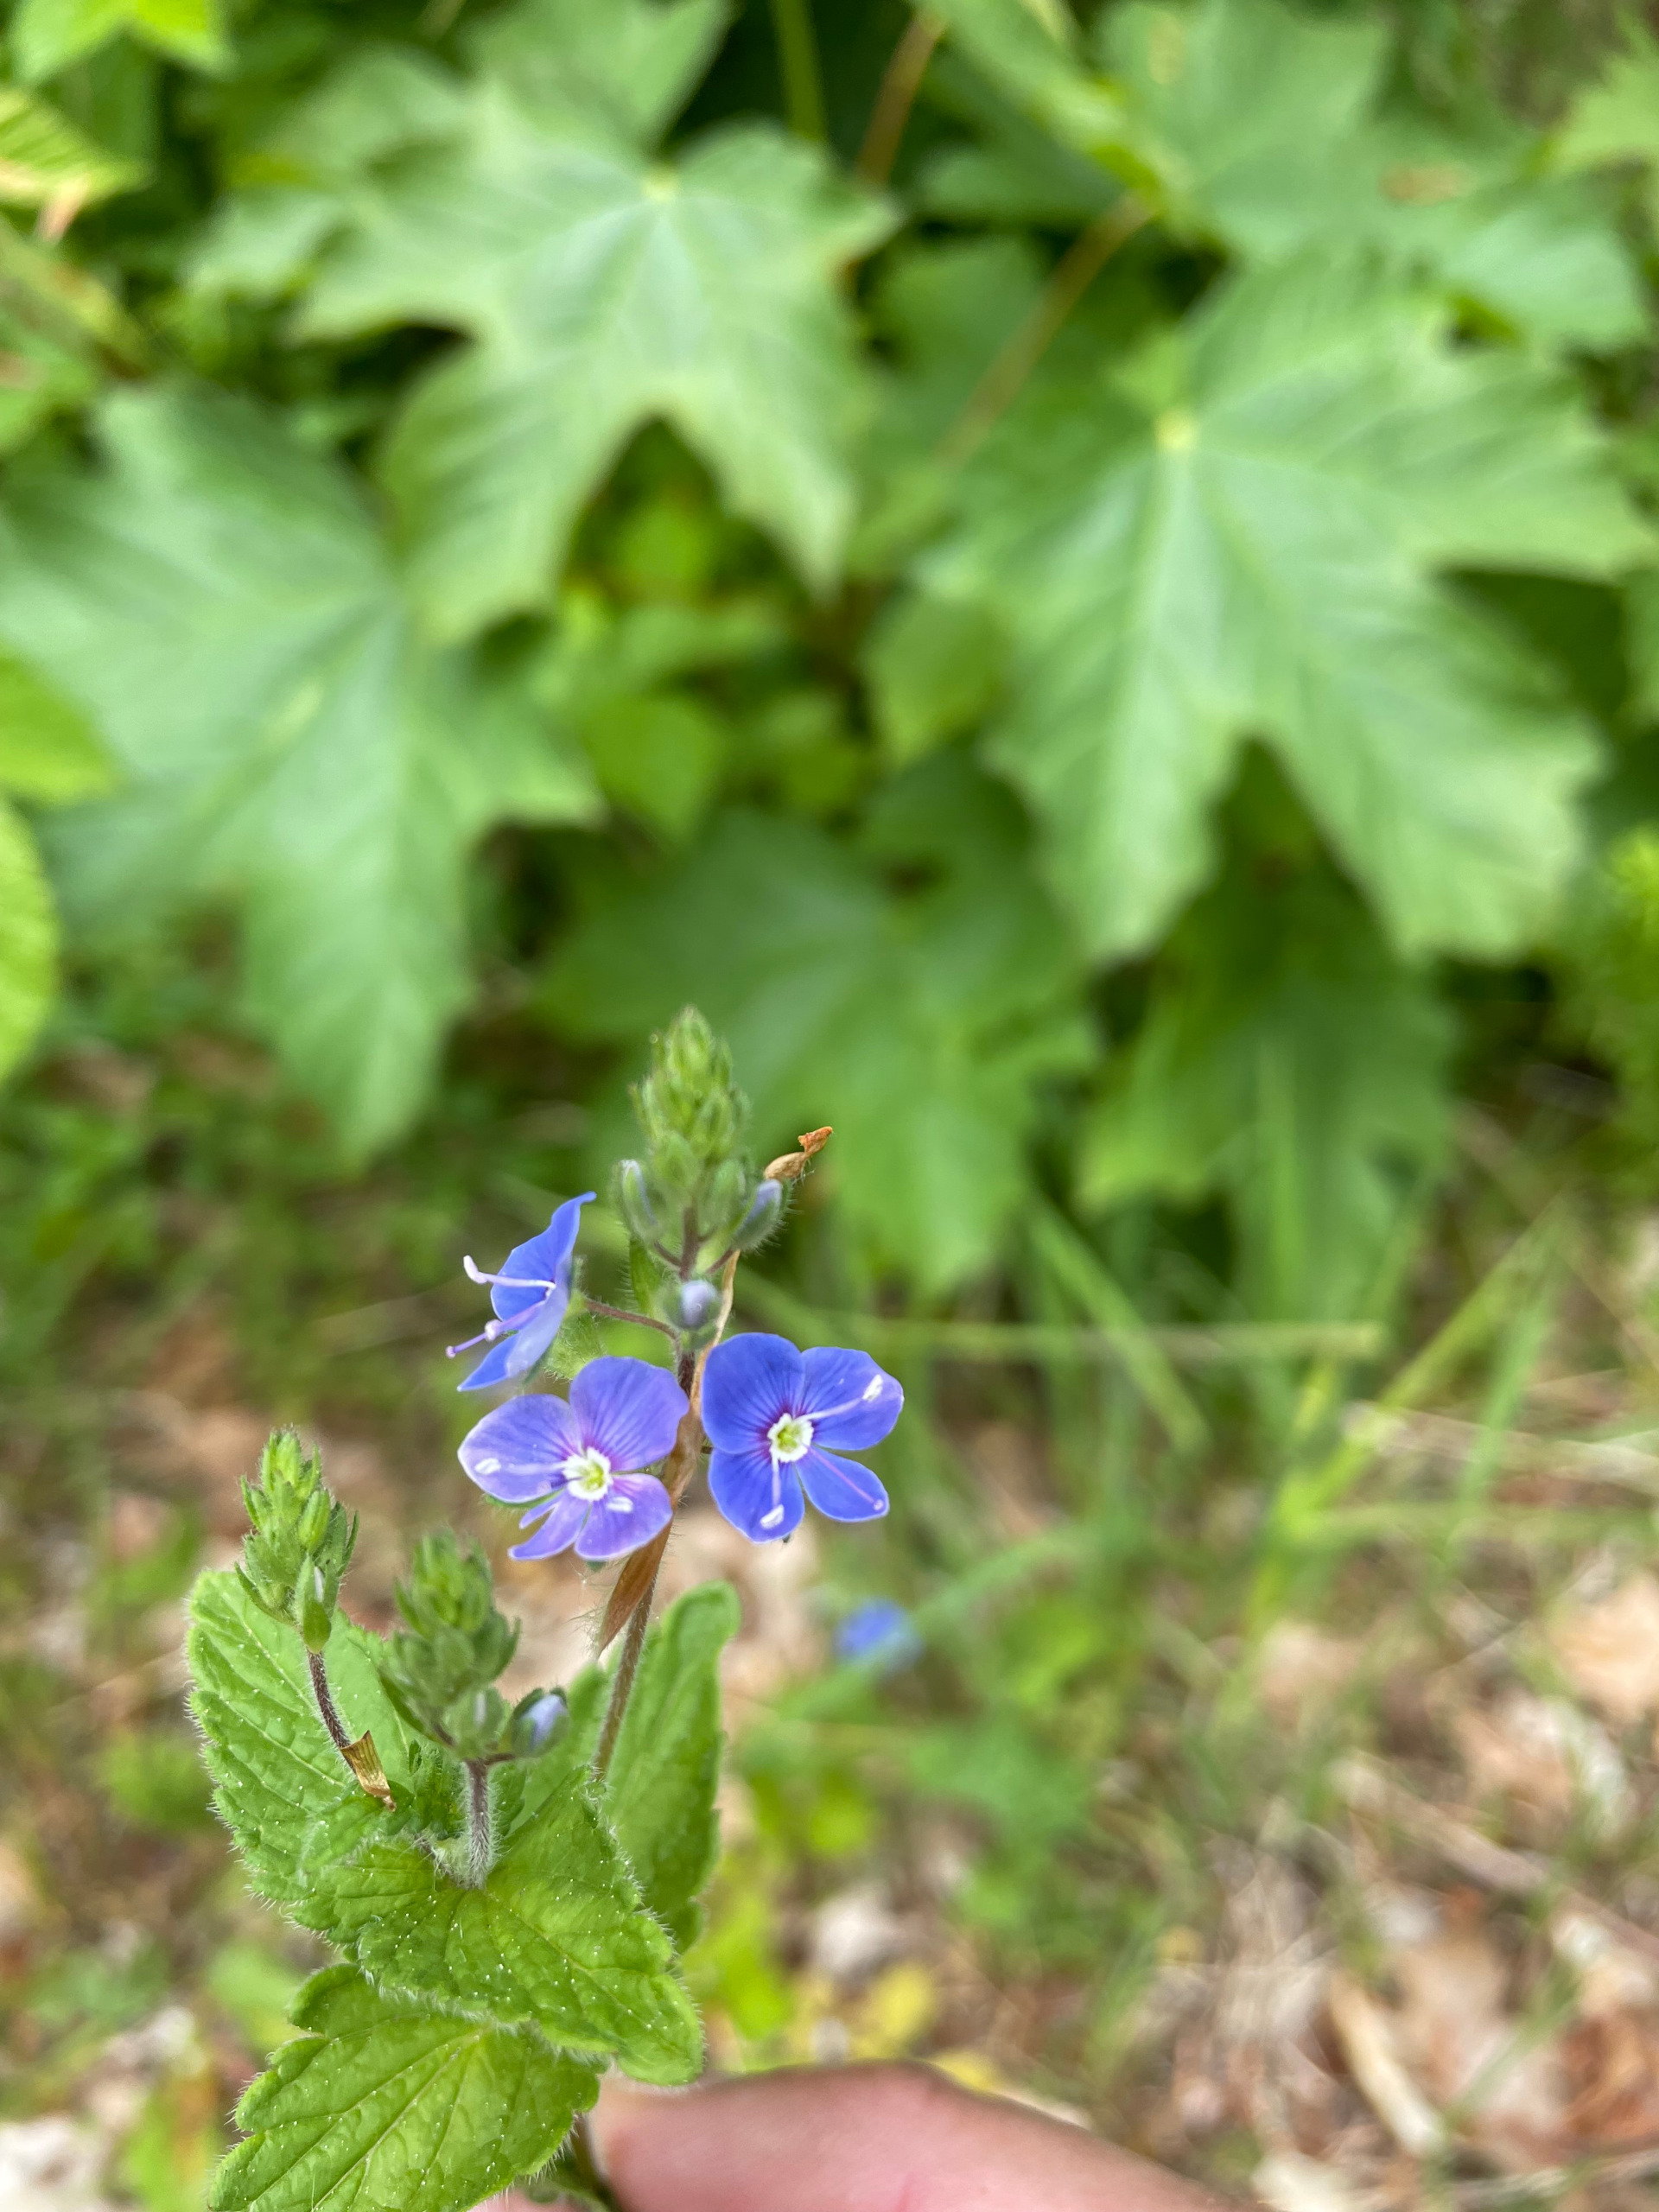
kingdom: Plantae
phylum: Tracheophyta
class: Magnoliopsida
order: Lamiales
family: Plantaginaceae
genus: Veronica
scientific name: Veronica chamaedrys
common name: Tveskægget ærenpris
